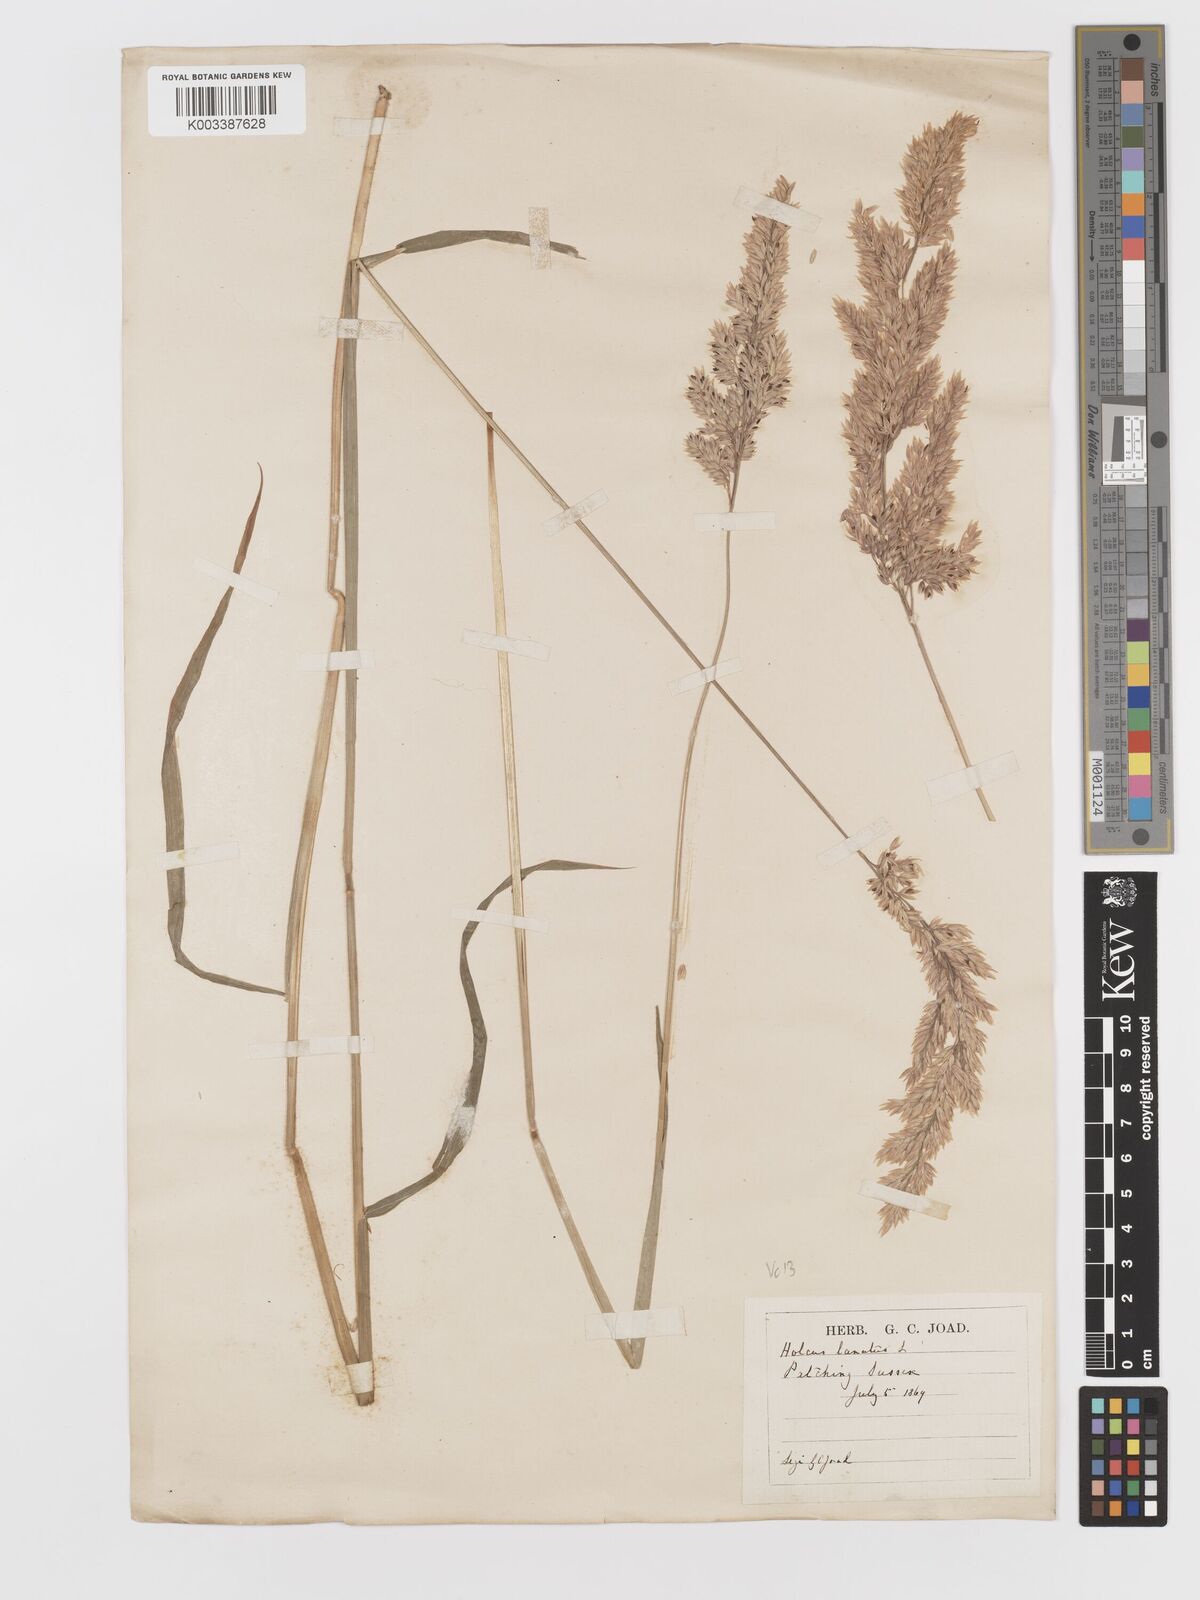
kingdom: Plantae
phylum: Tracheophyta
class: Liliopsida
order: Poales
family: Poaceae
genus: Holcus
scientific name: Holcus lanatus
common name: Yorkshire-fog
